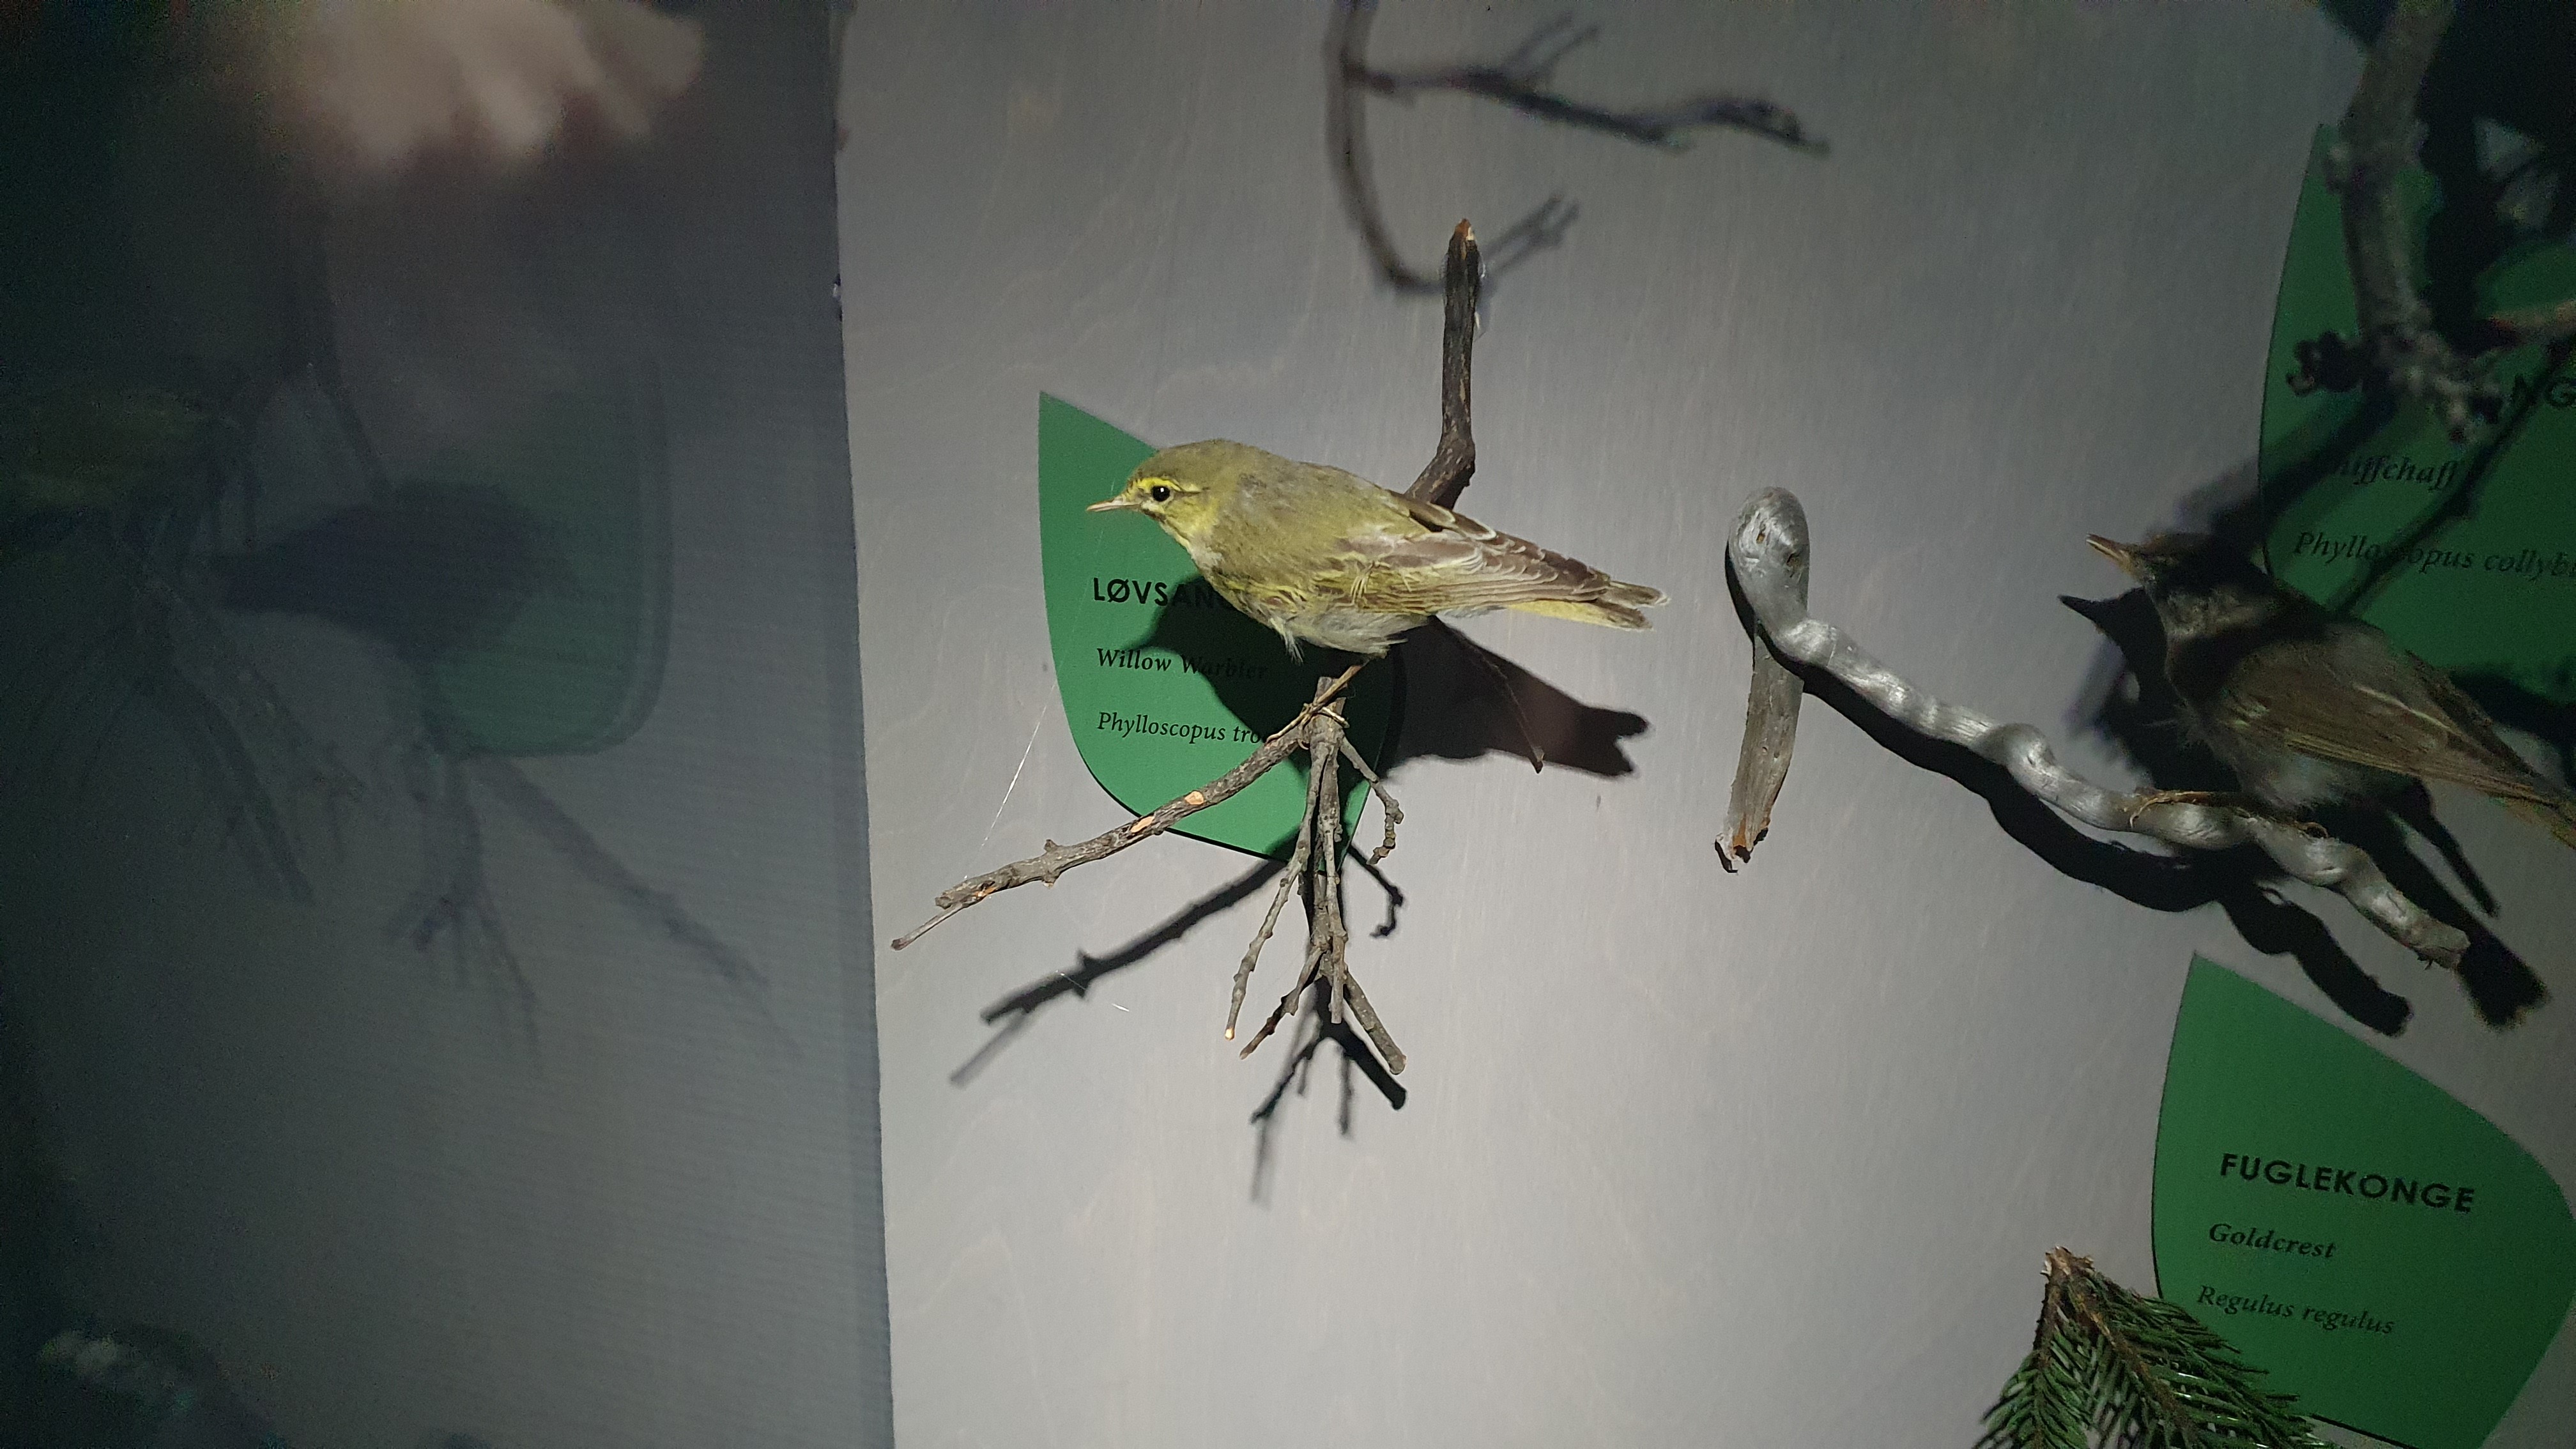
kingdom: Animalia
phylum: Chordata
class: Aves
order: Passeriformes
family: Phylloscopidae
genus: Phylloscopus
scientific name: Phylloscopus sibillatrix
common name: Wood warbler
